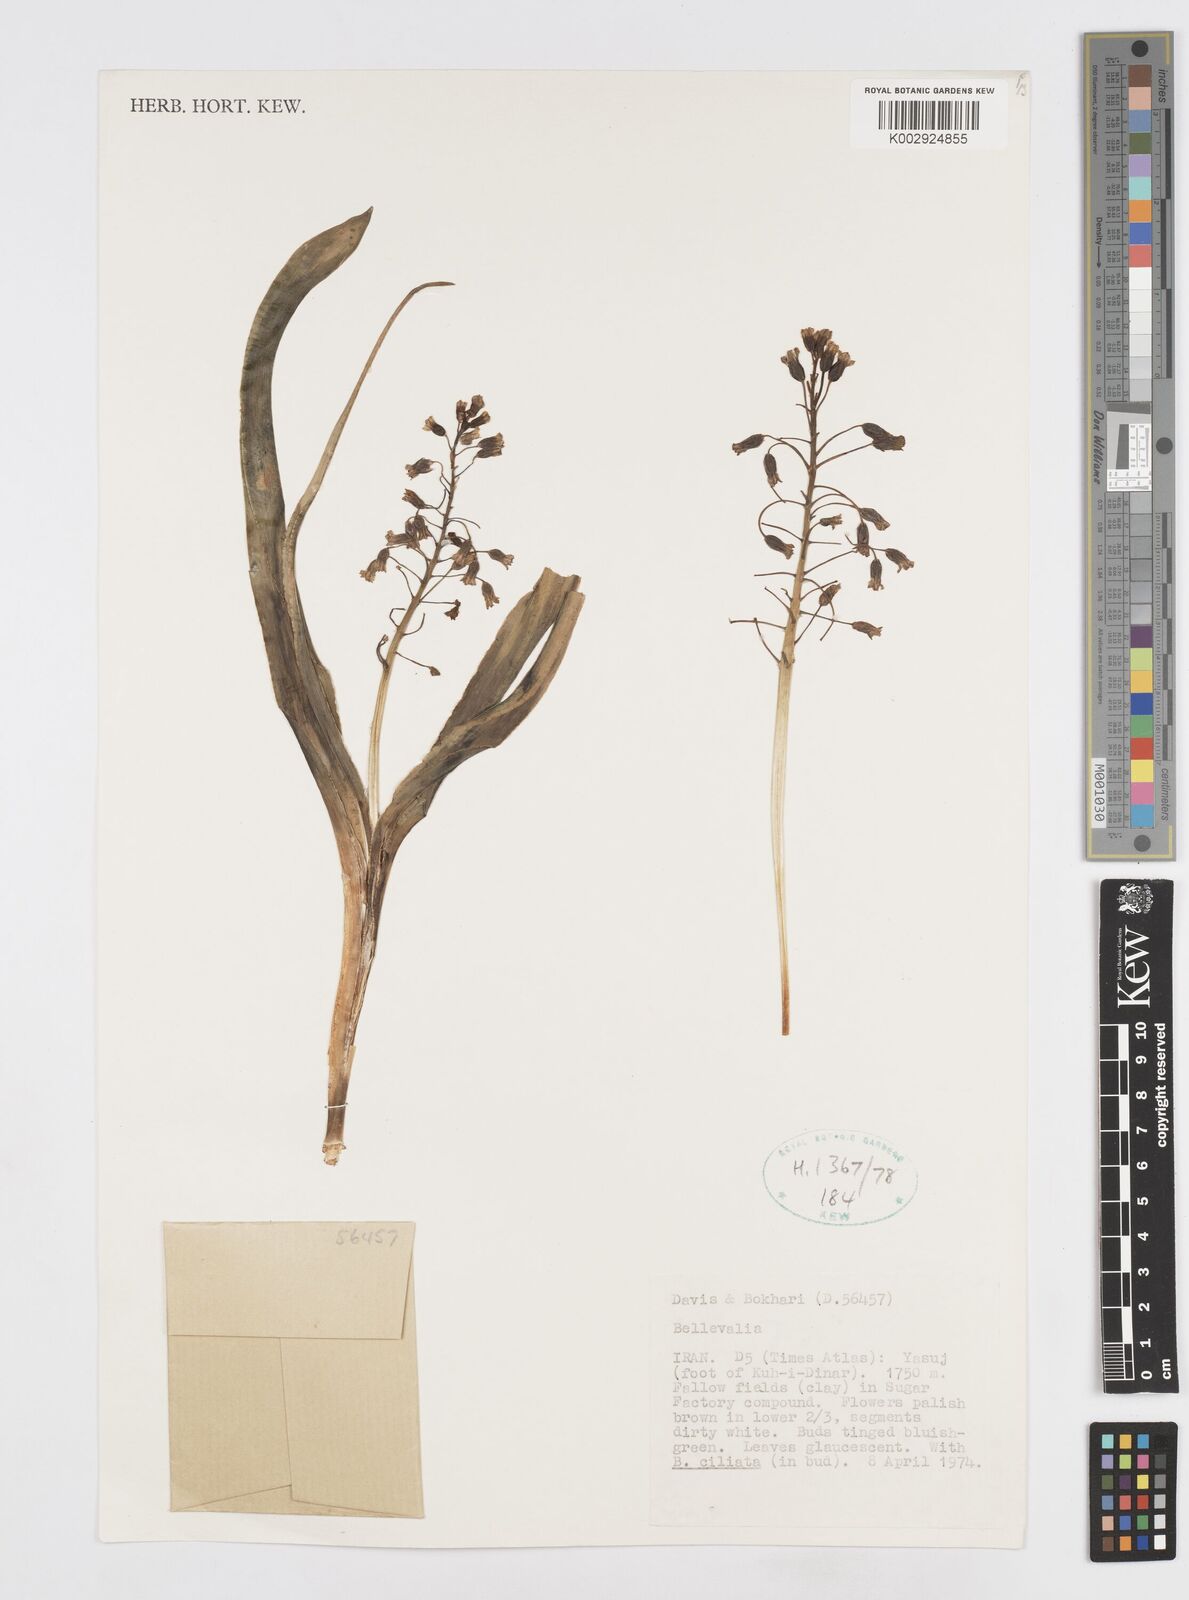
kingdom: Plantae
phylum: Tracheophyta
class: Liliopsida
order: Asparagales
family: Asparagaceae
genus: Bellevalia
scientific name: Bellevalia
